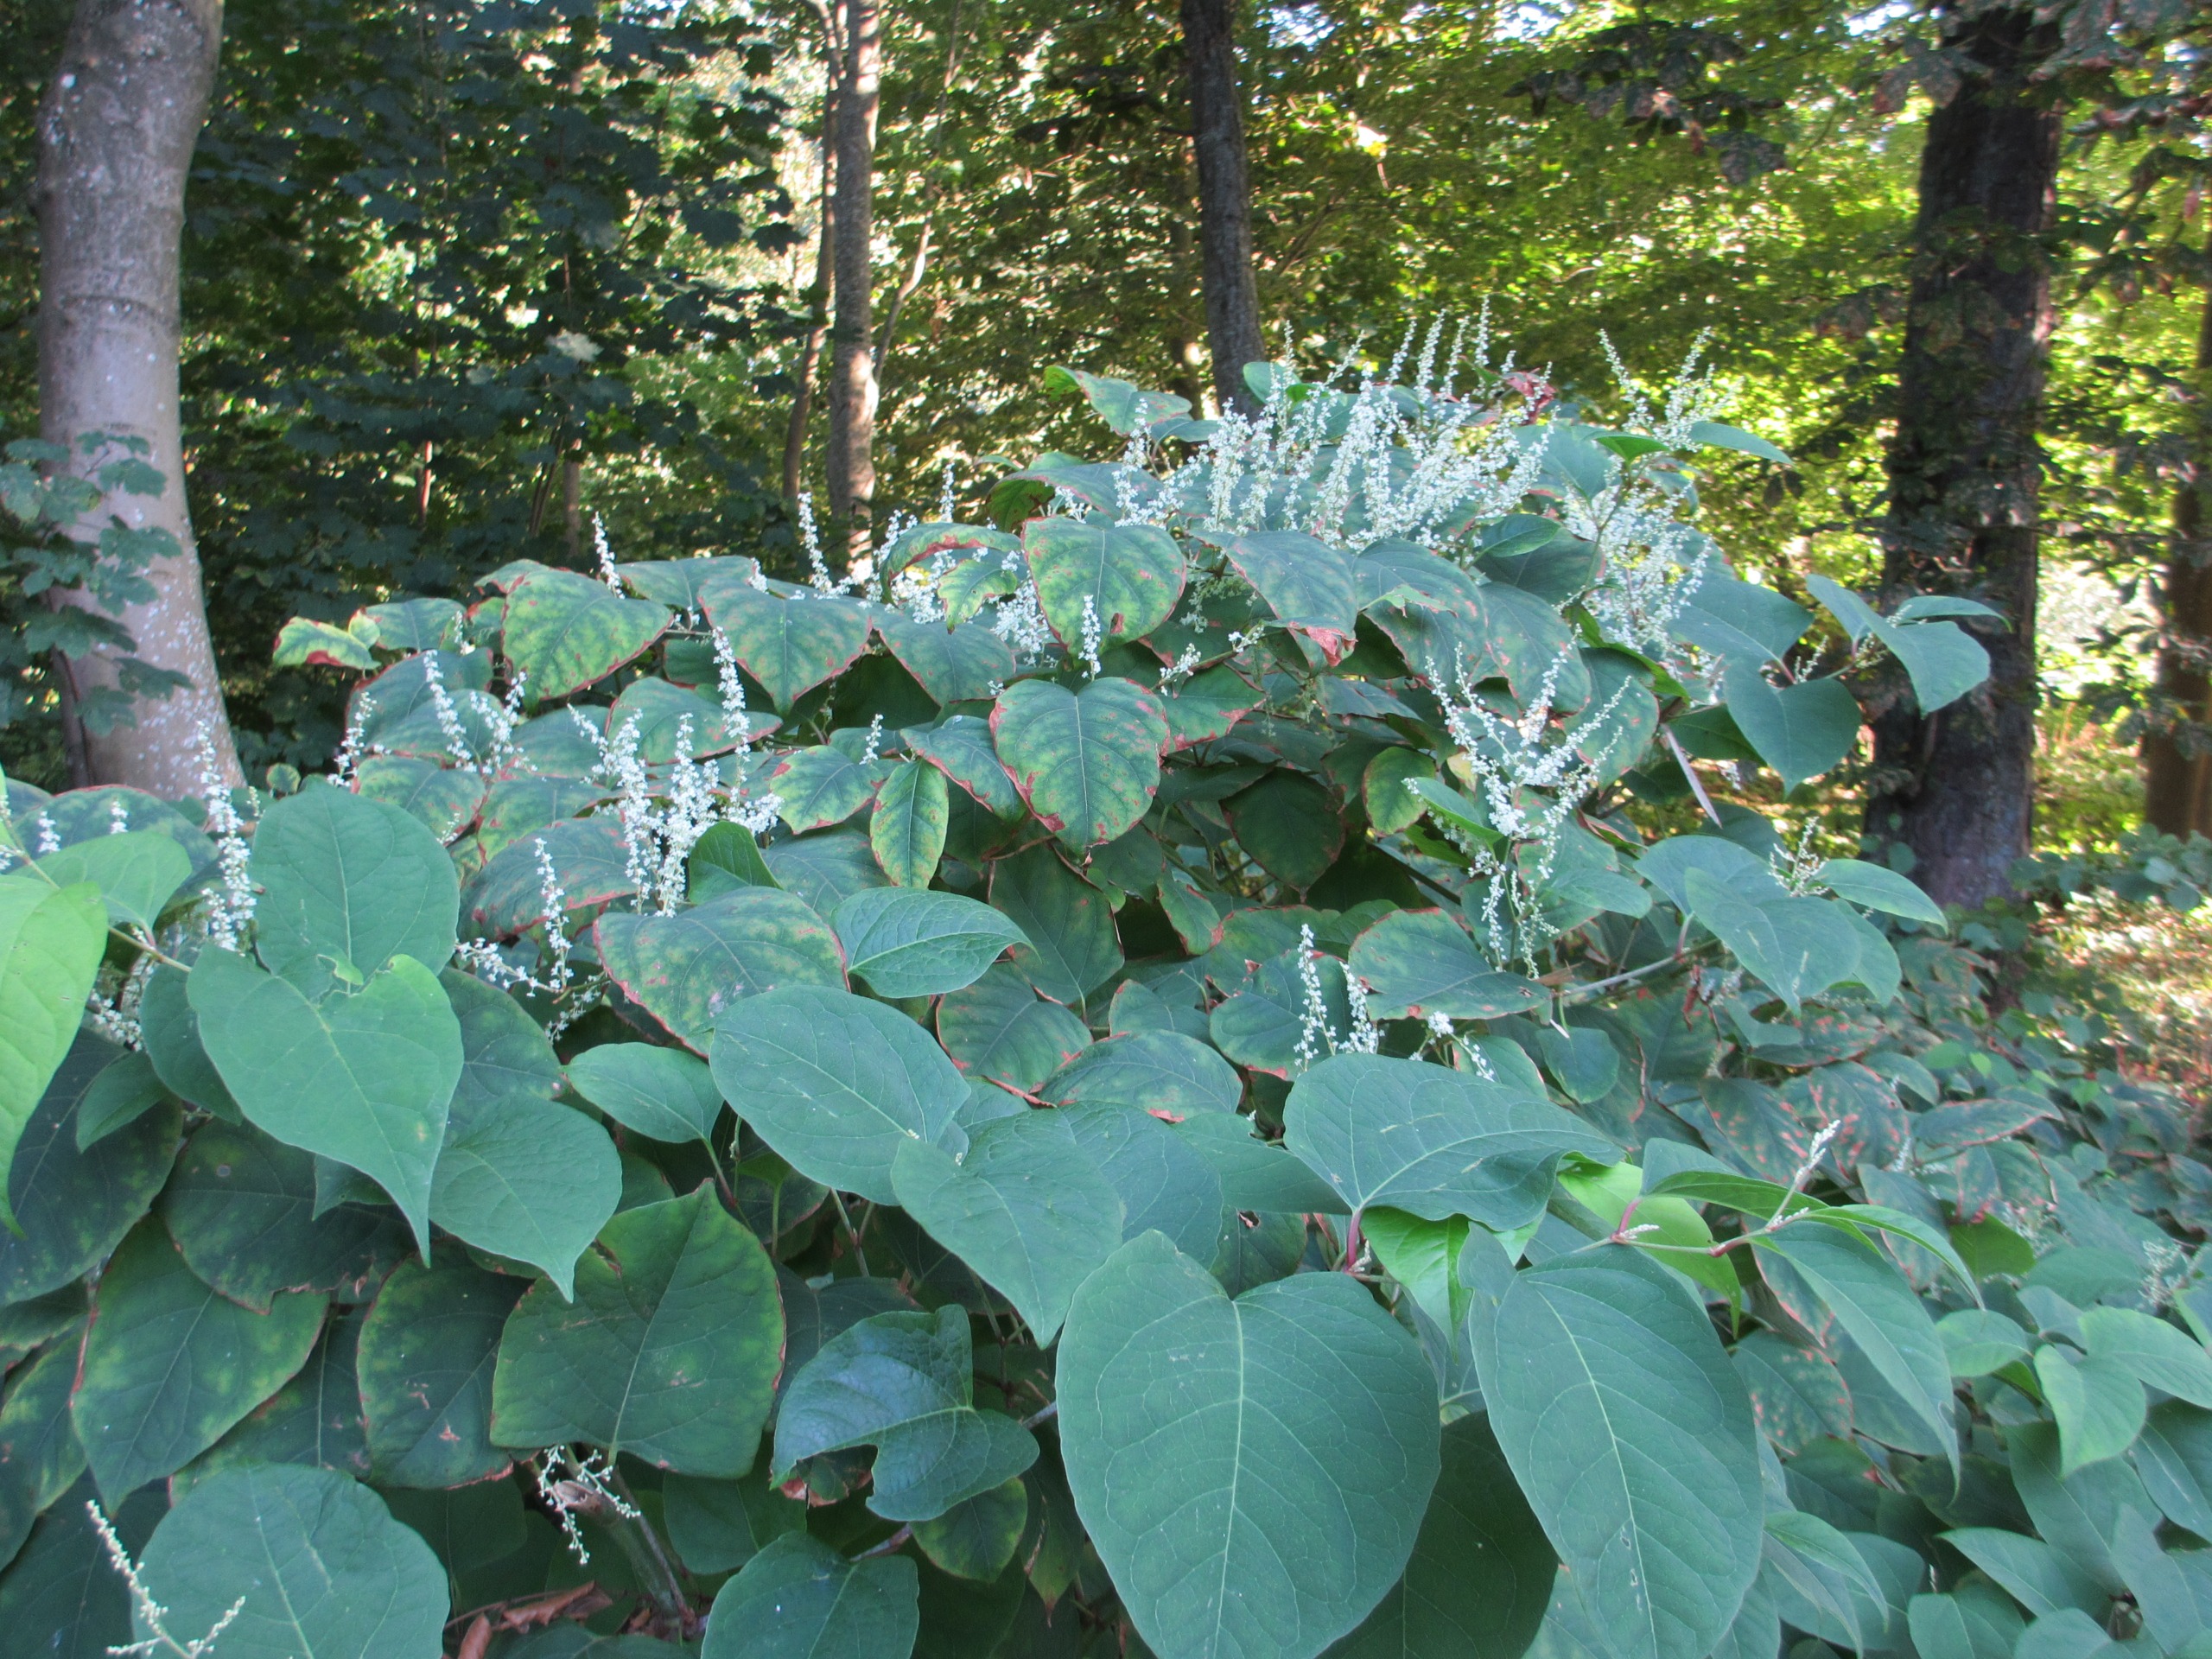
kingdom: Plantae
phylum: Tracheophyta
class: Magnoliopsida
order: Caryophyllales
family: Polygonaceae
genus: Reynoutria
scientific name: Reynoutria japonica
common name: Japan-pileurt
